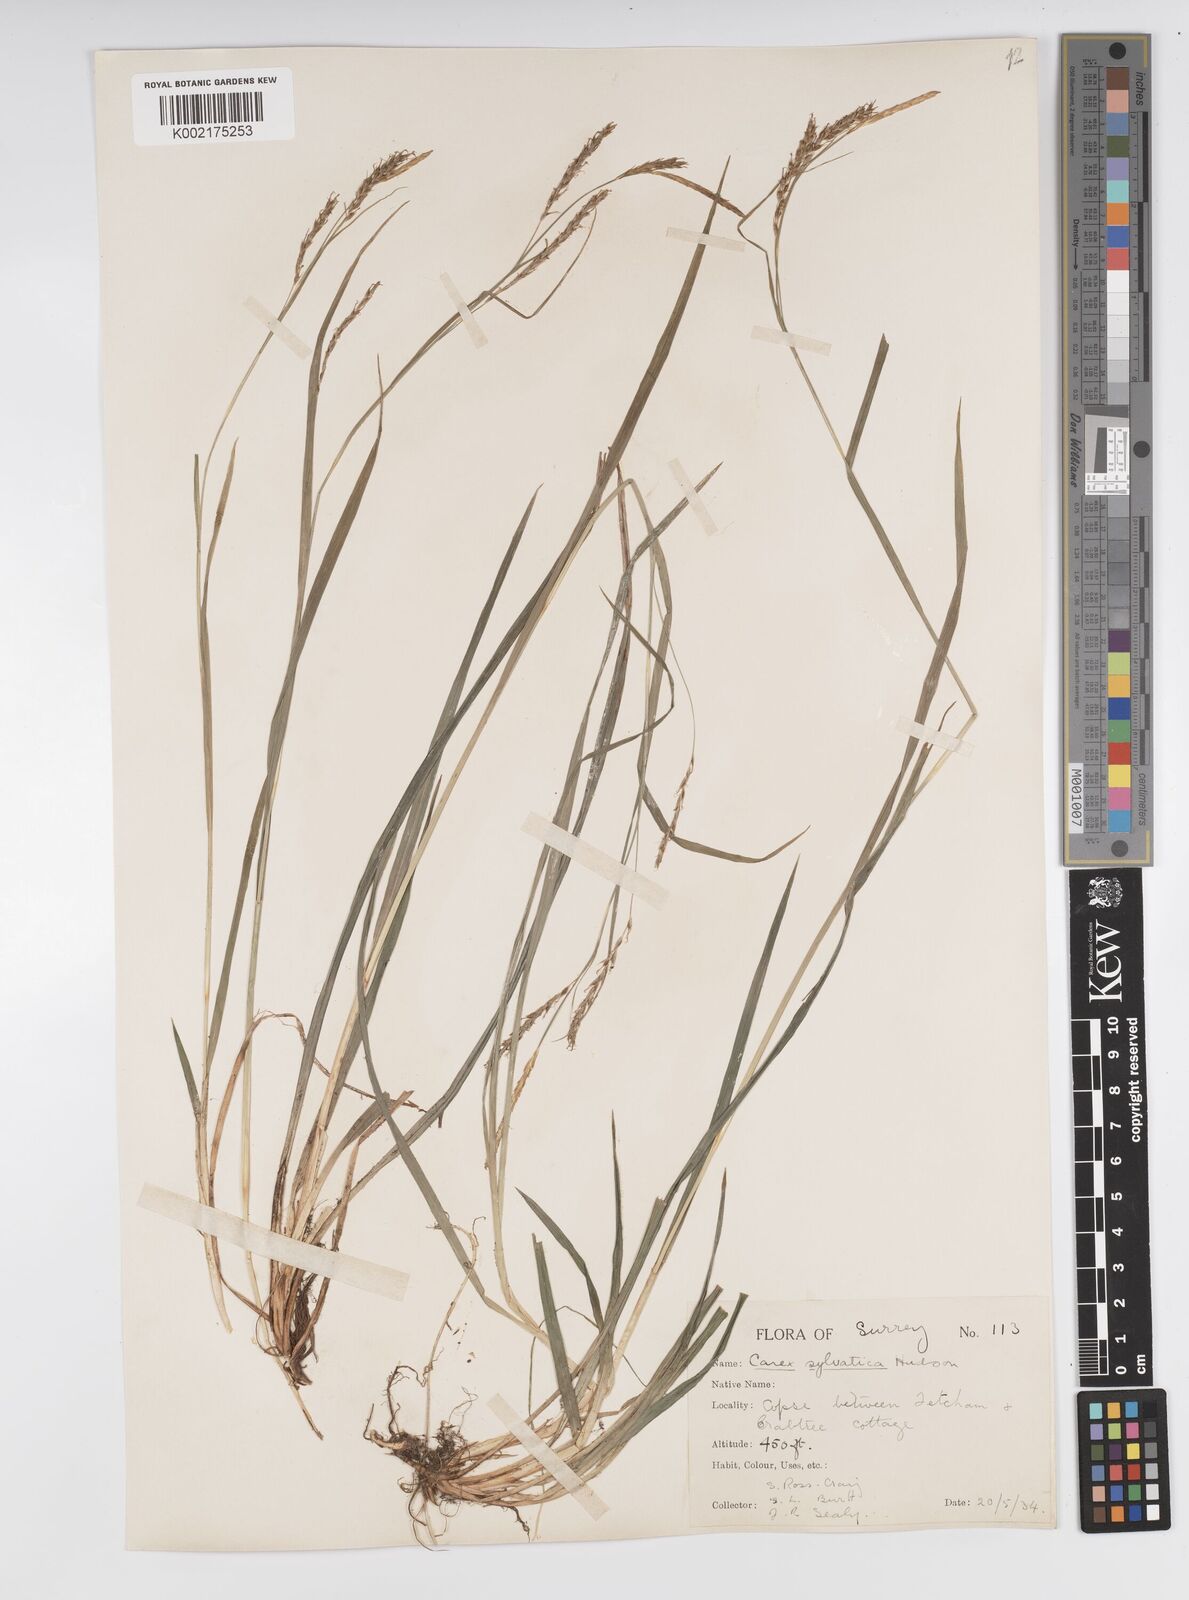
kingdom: Plantae
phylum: Tracheophyta
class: Liliopsida
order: Poales
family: Cyperaceae
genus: Carex
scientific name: Carex sylvatica
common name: Wood-sedge
